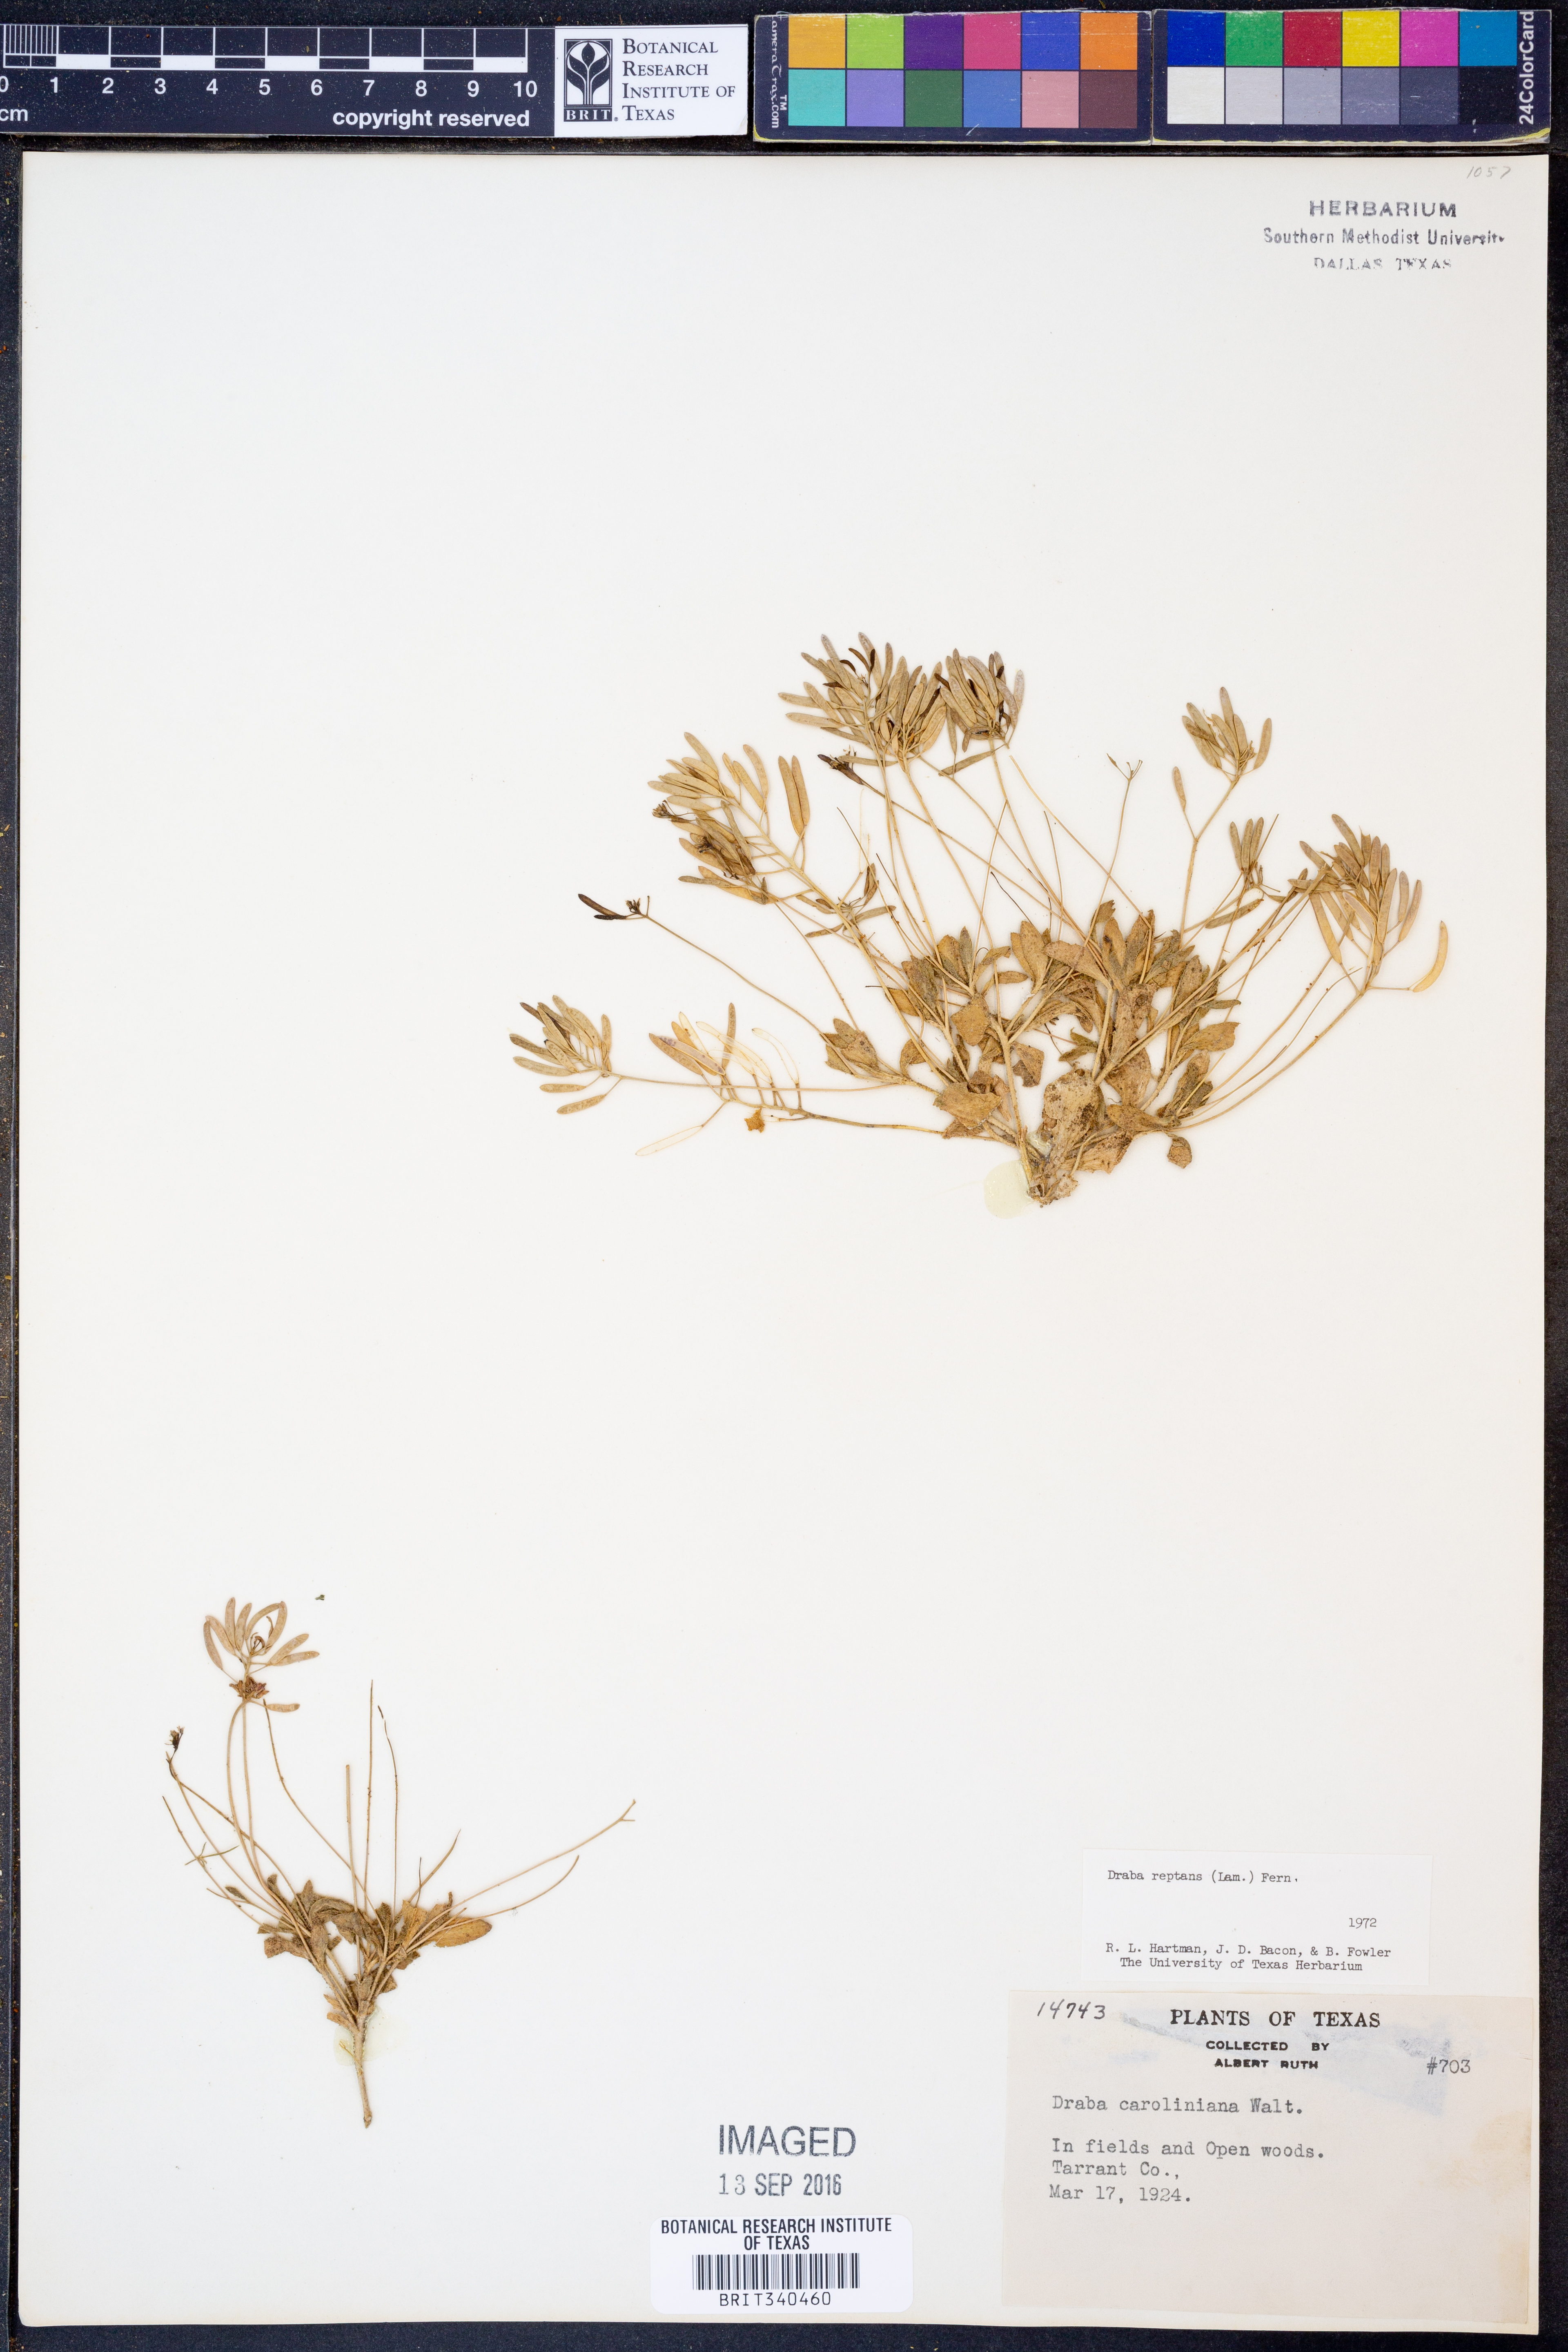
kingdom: Plantae
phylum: Tracheophyta
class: Magnoliopsida
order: Brassicales
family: Brassicaceae
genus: Tomostima
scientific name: Tomostima reptans
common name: Carolina draba
